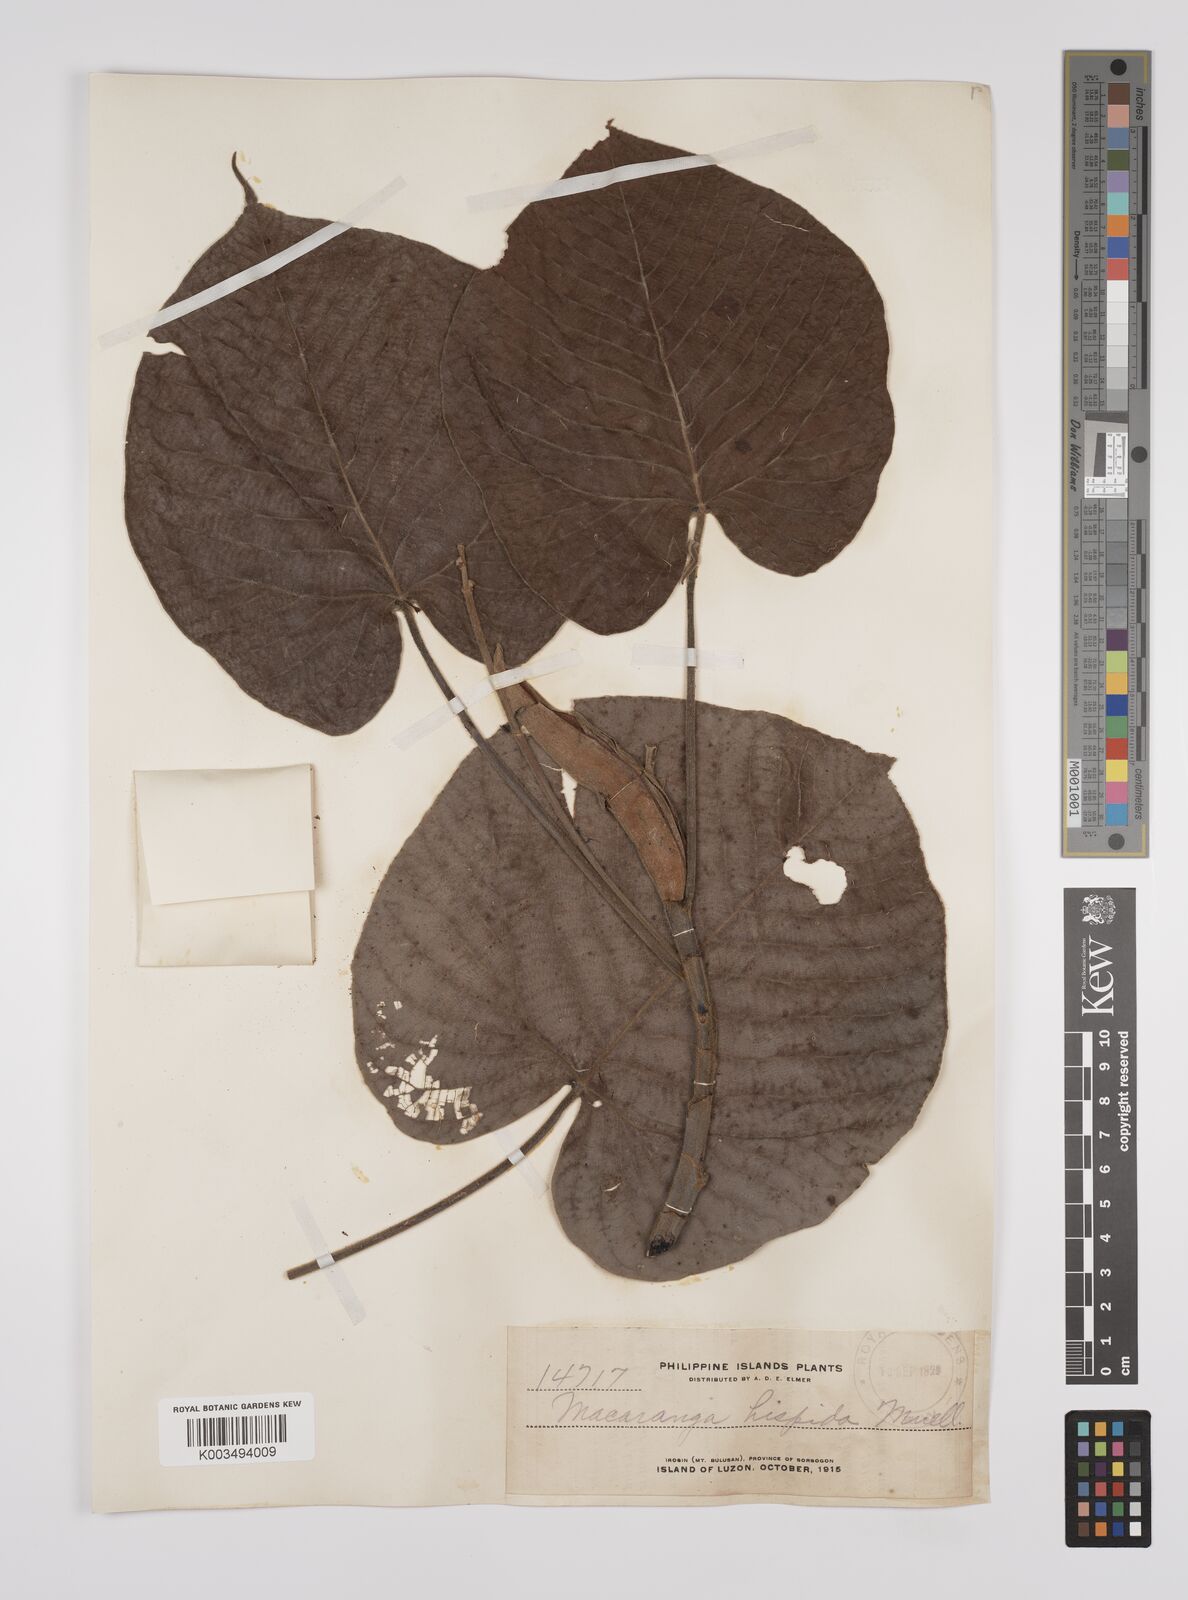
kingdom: Plantae
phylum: Tracheophyta
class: Magnoliopsida
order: Malpighiales
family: Euphorbiaceae
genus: Macaranga
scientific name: Macaranga hispida
